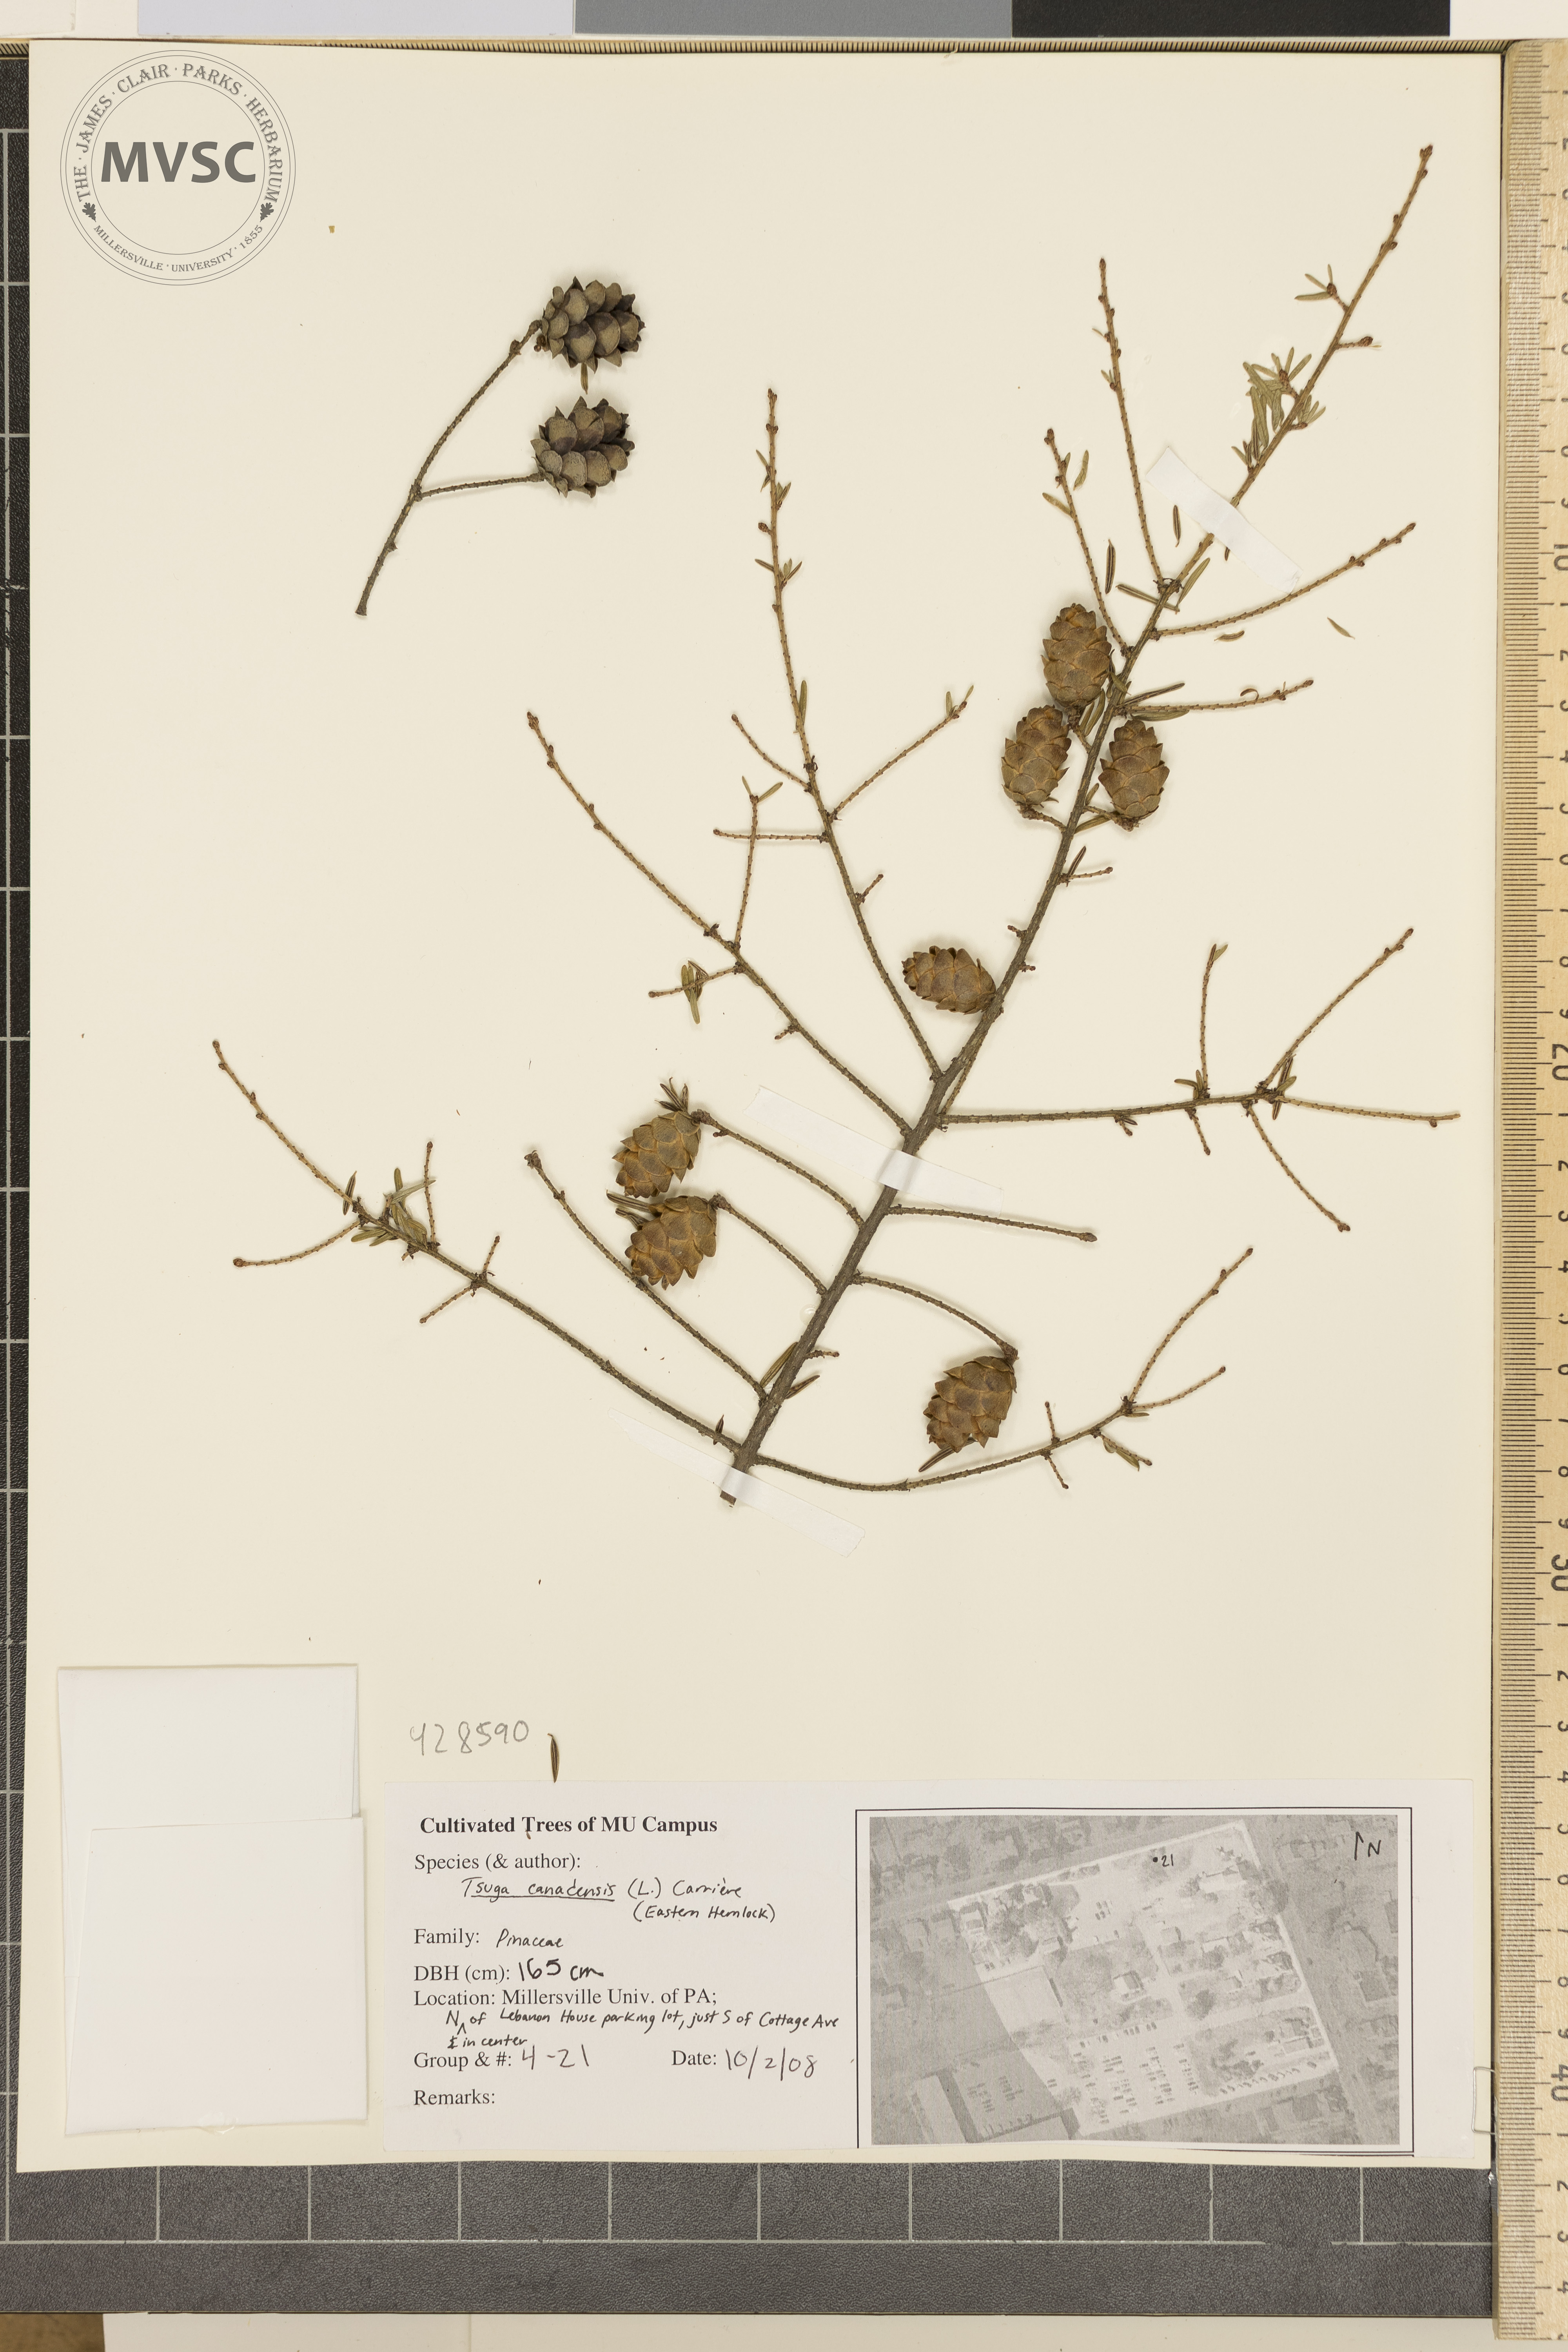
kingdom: Plantae
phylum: Tracheophyta
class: Pinopsida
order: Pinales
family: Pinaceae
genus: Tsuga
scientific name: Tsuga canadensis
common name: Canadian Hemlock
